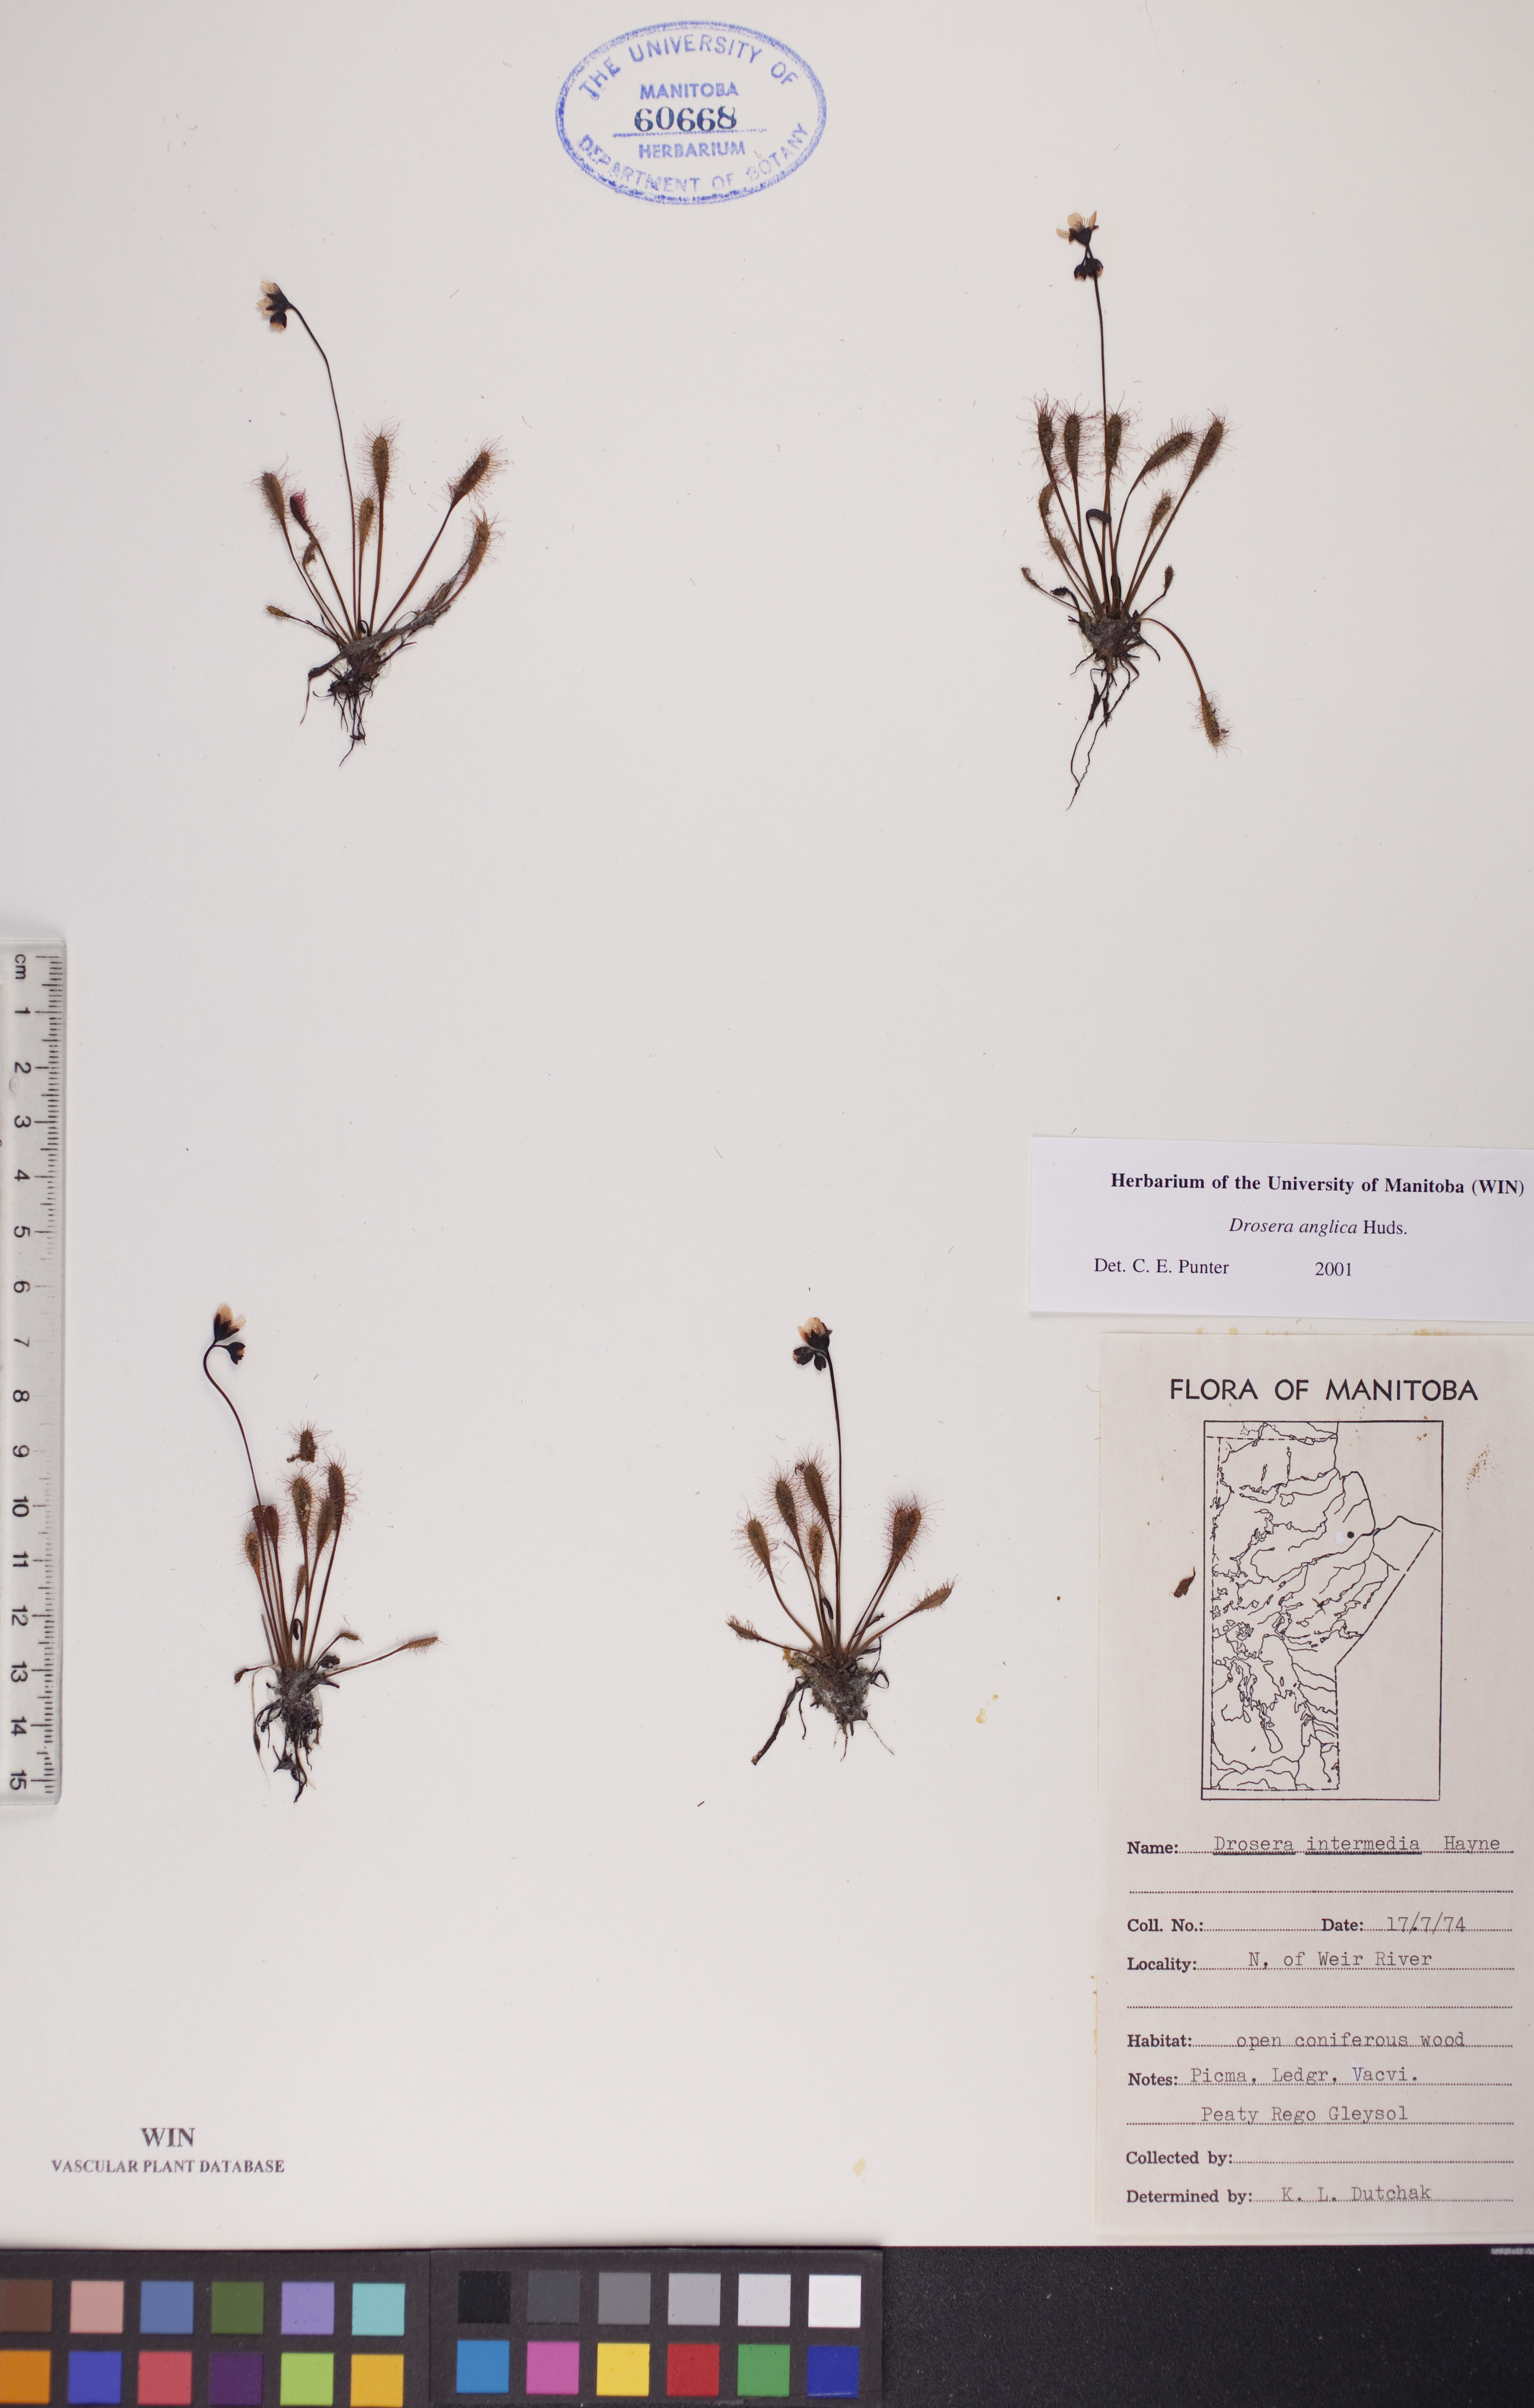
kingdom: Plantae
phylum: Tracheophyta
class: Magnoliopsida
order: Caryophyllales
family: Droseraceae
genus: Drosera
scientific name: Drosera anglica
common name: Great sundew
